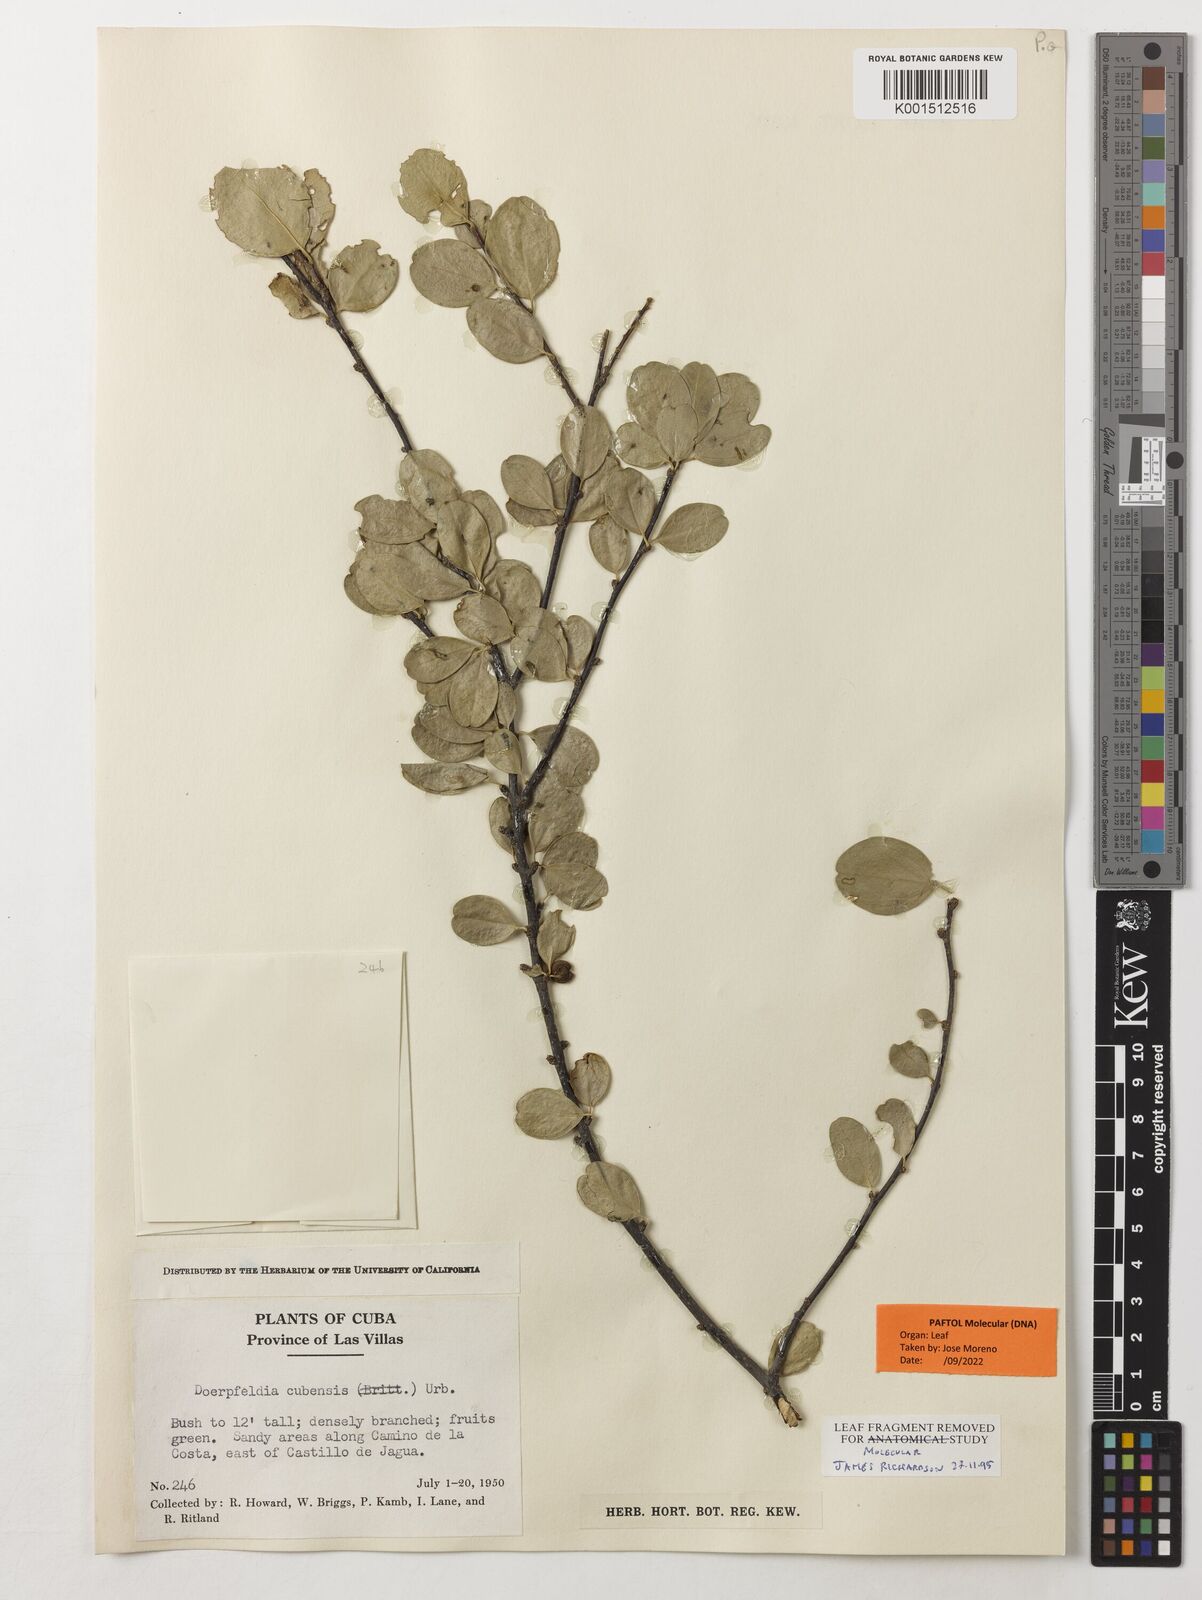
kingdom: Plantae
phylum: Tracheophyta
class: Magnoliopsida
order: Rosales
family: Rhamnaceae
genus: Doerpfeldia
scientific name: Doerpfeldia cubensis
